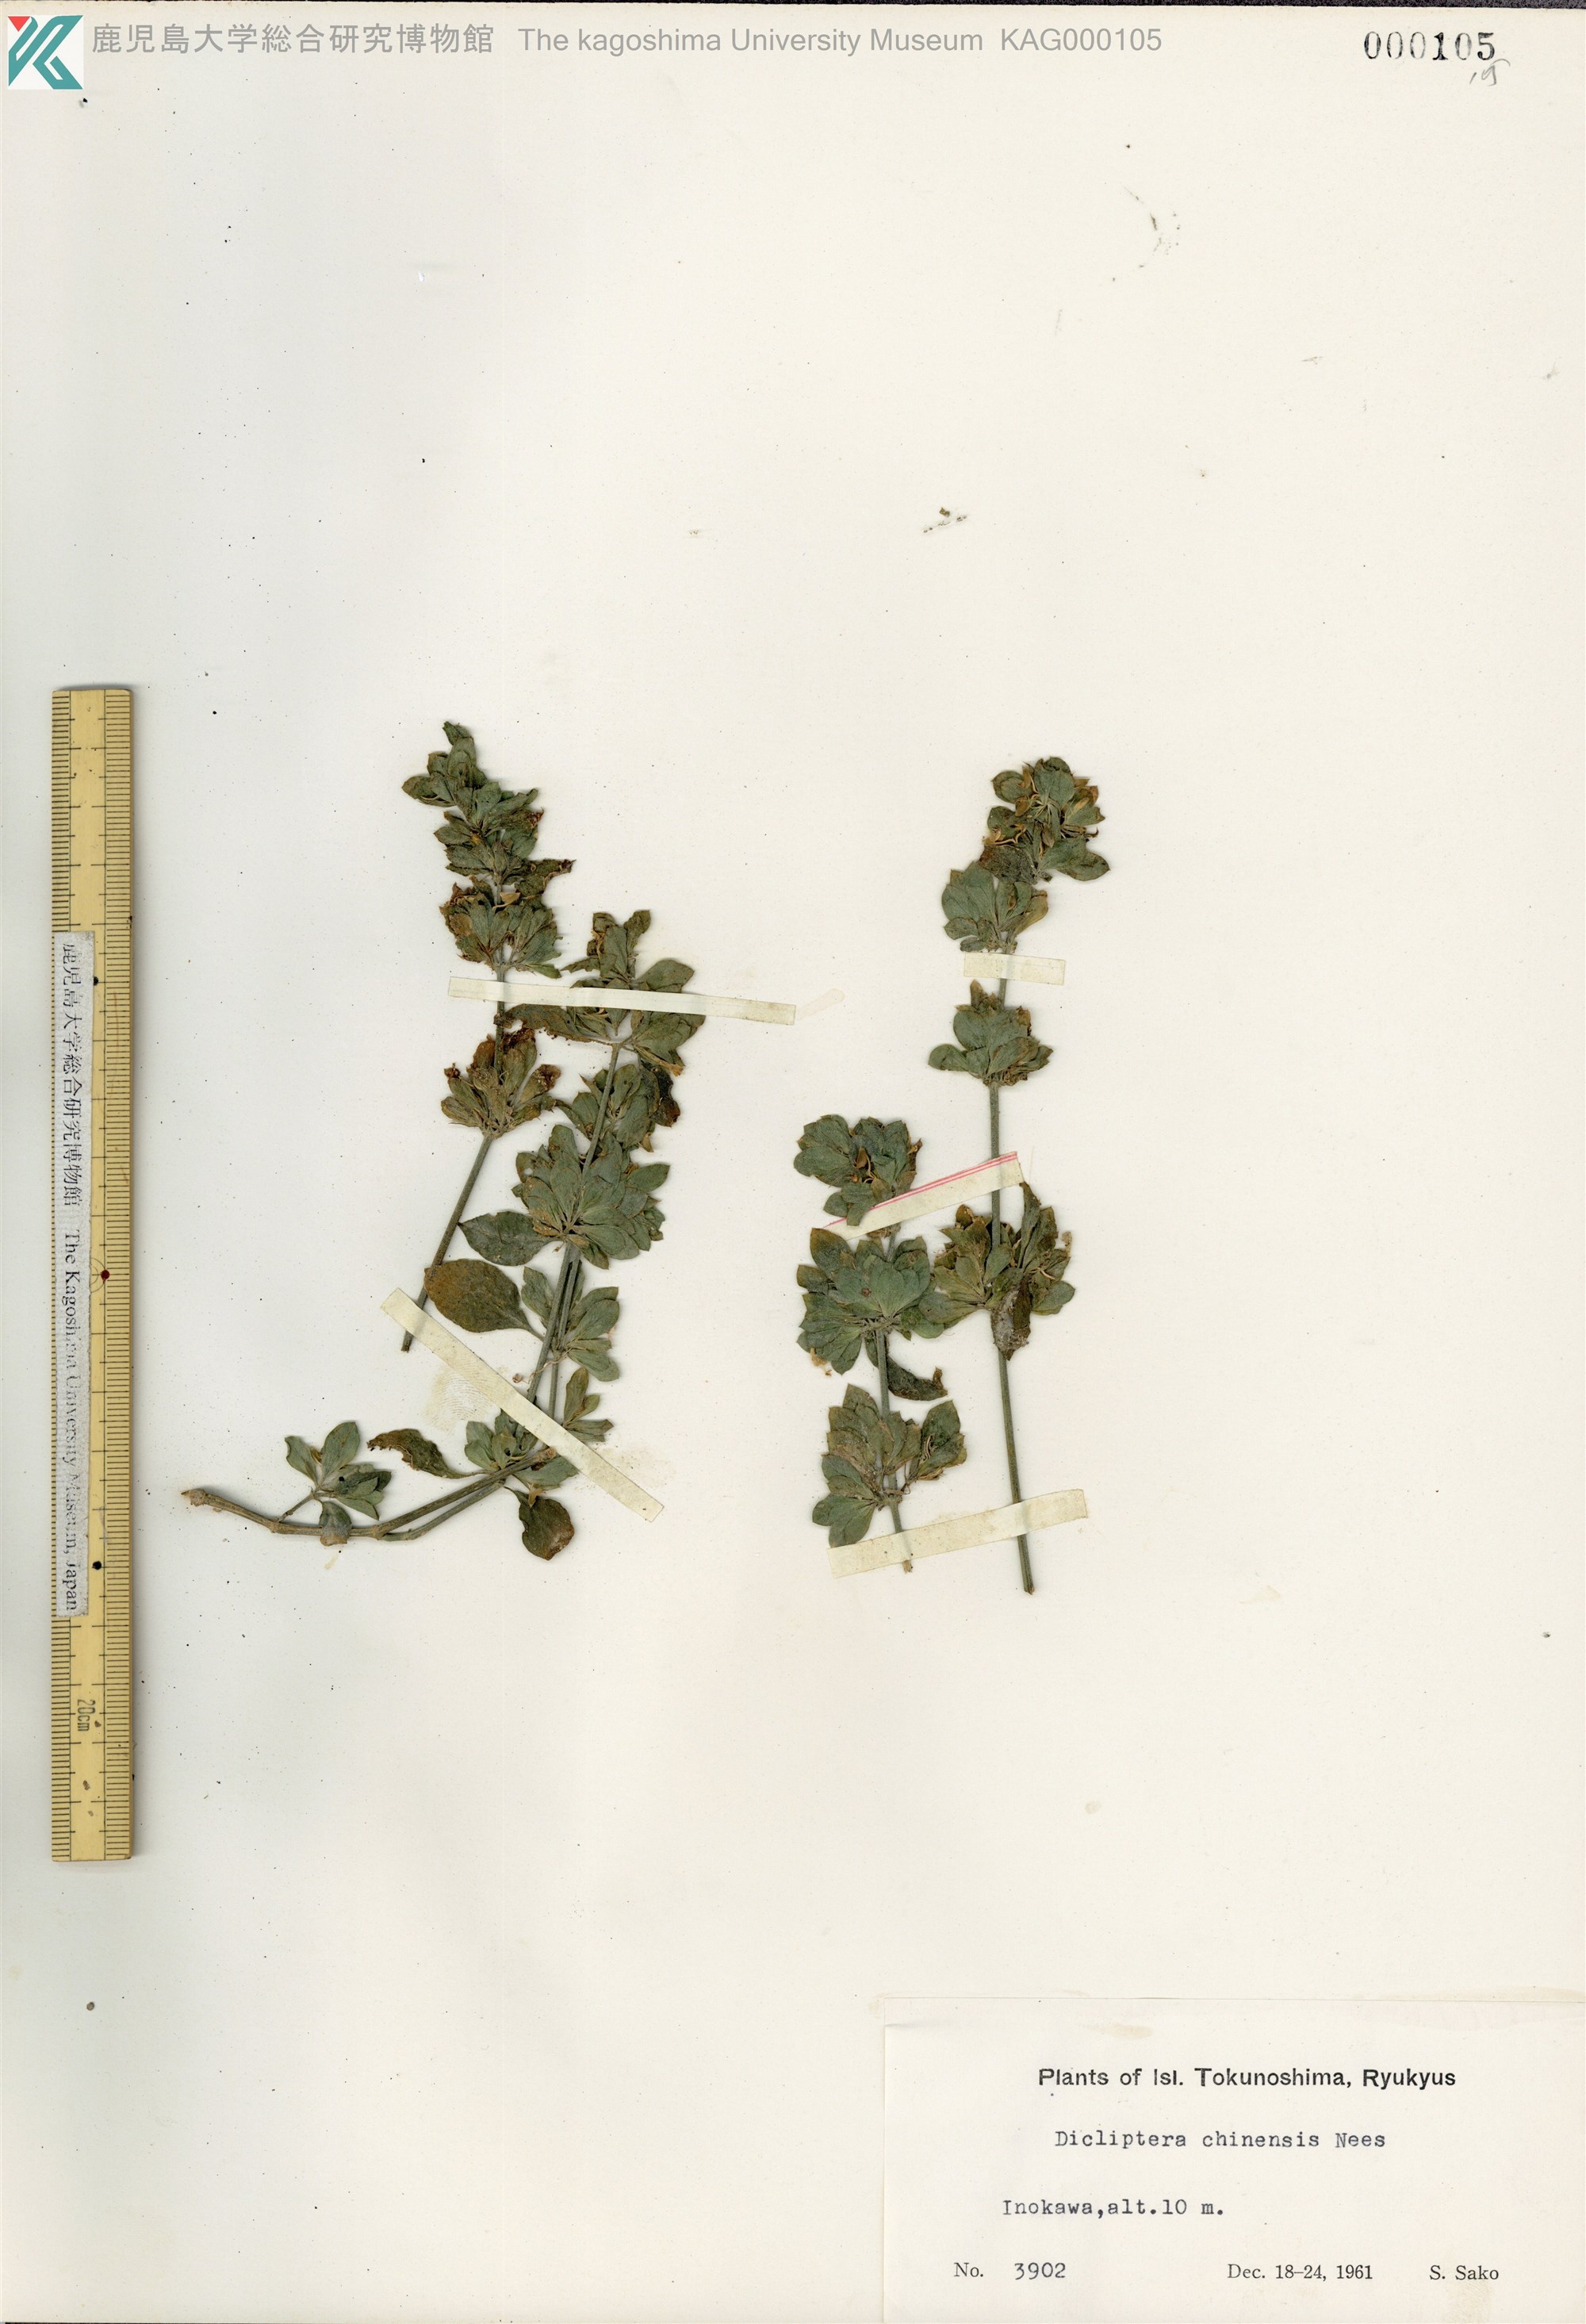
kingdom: Plantae
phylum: Tracheophyta
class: Magnoliopsida
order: Lamiales
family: Acanthaceae
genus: Dicliptera
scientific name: Dicliptera chinensis
